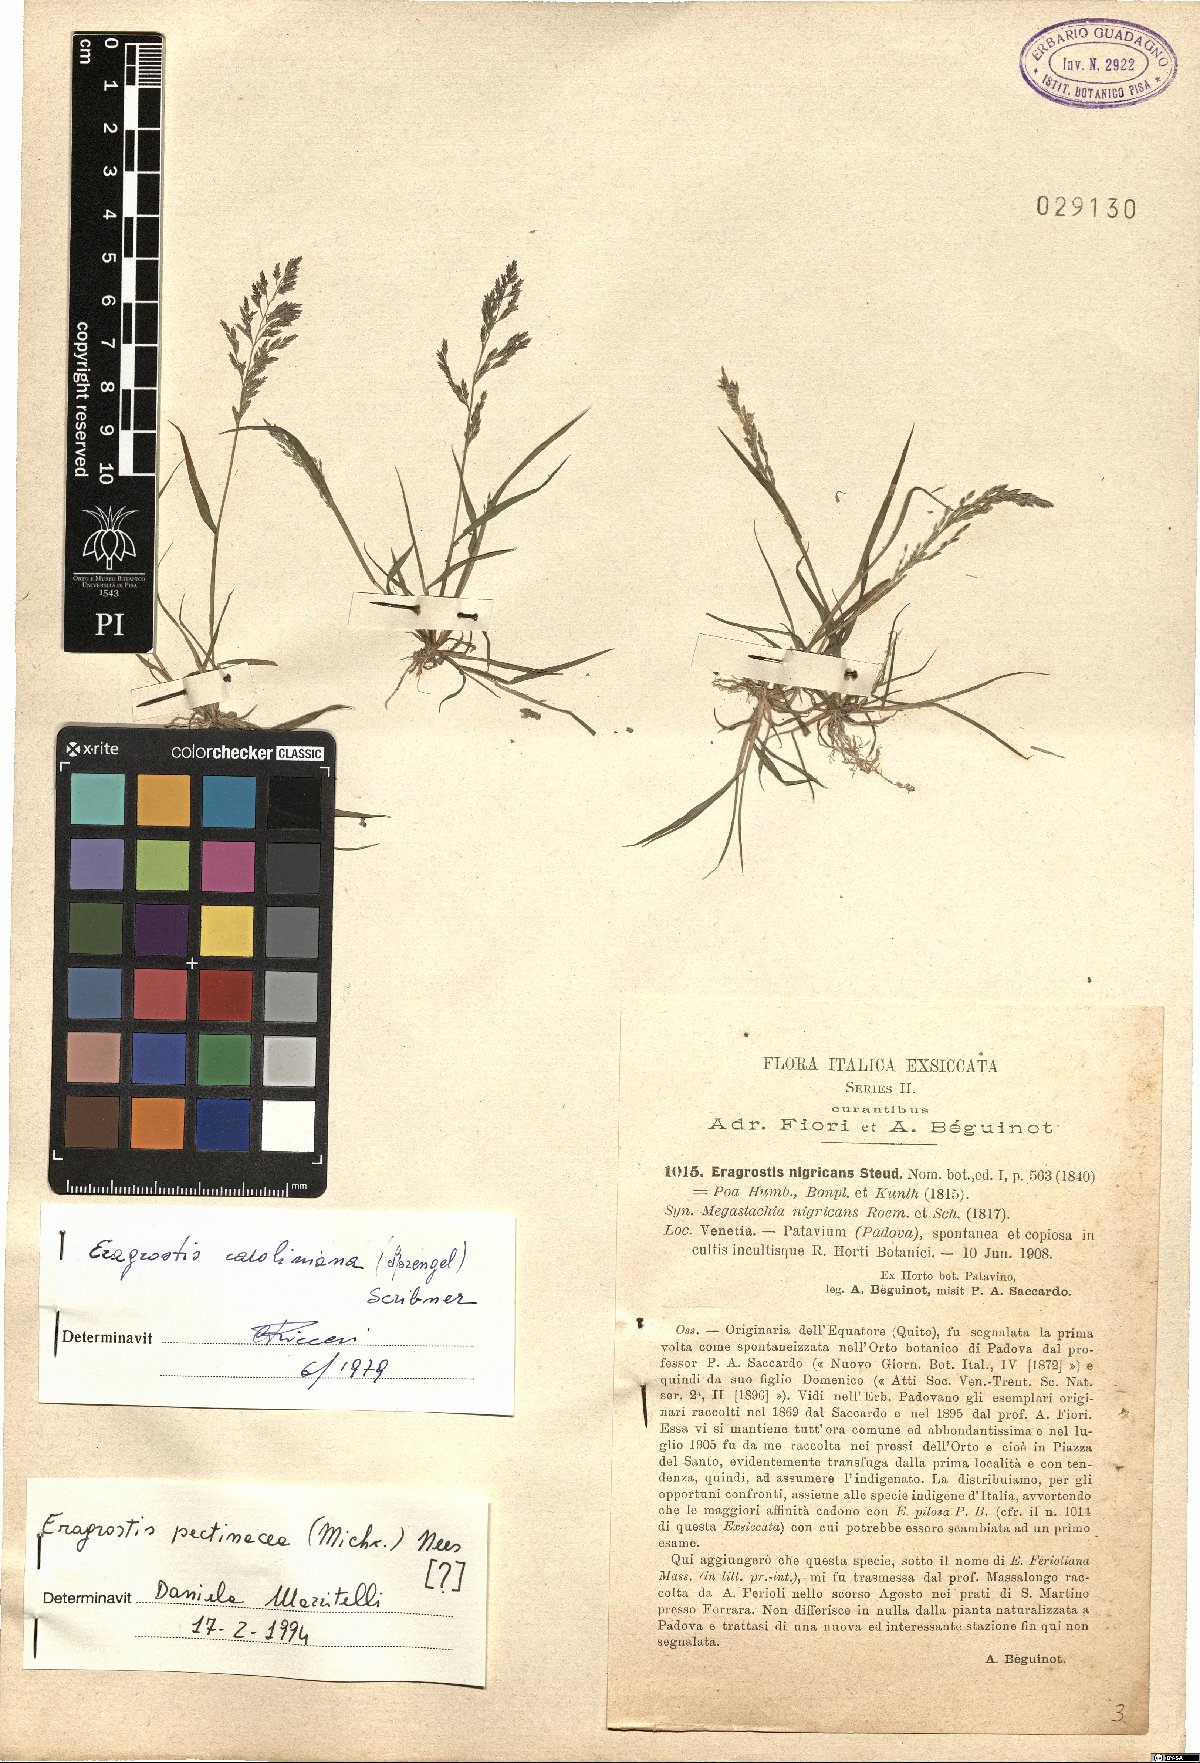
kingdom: Plantae
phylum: Tracheophyta
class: Liliopsida
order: Poales
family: Poaceae
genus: Eragrostis
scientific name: Eragrostis pectinacea
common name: Tufted lovegrass
